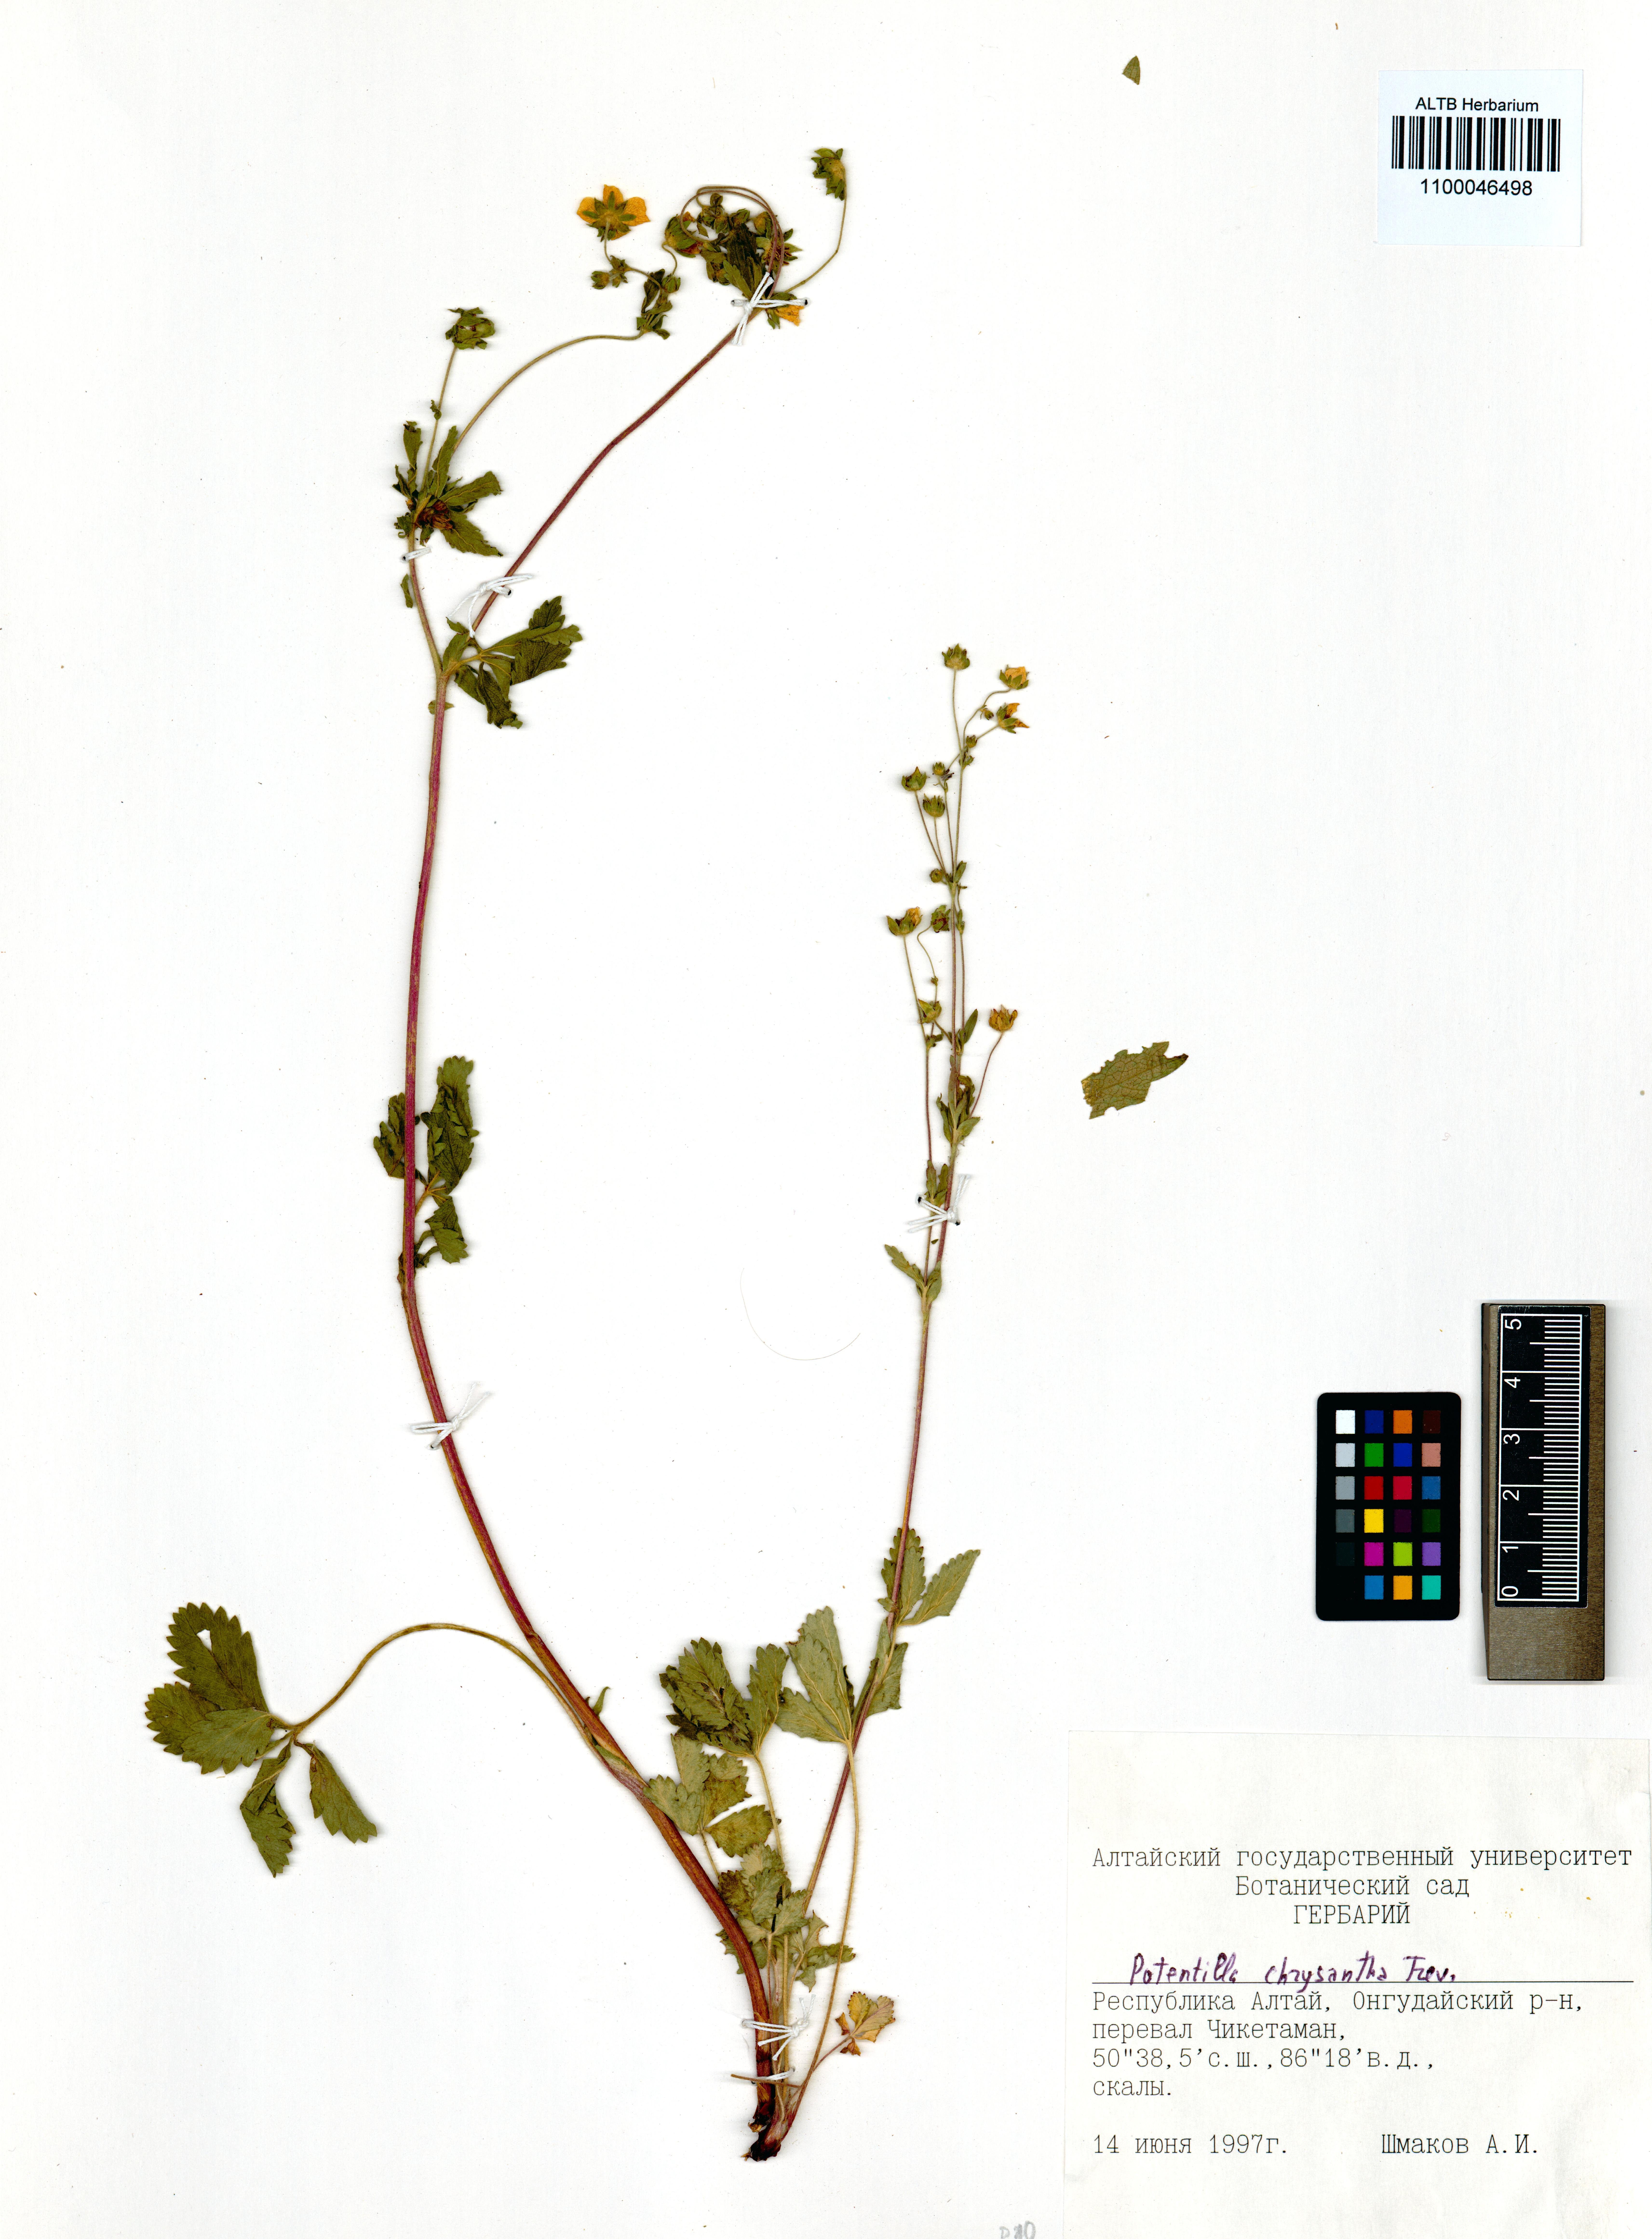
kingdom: Plantae
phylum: Tracheophyta
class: Magnoliopsida
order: Rosales
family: Rosaceae
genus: Potentilla
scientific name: Potentilla chrysantha
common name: Thuringian cinquefoil
